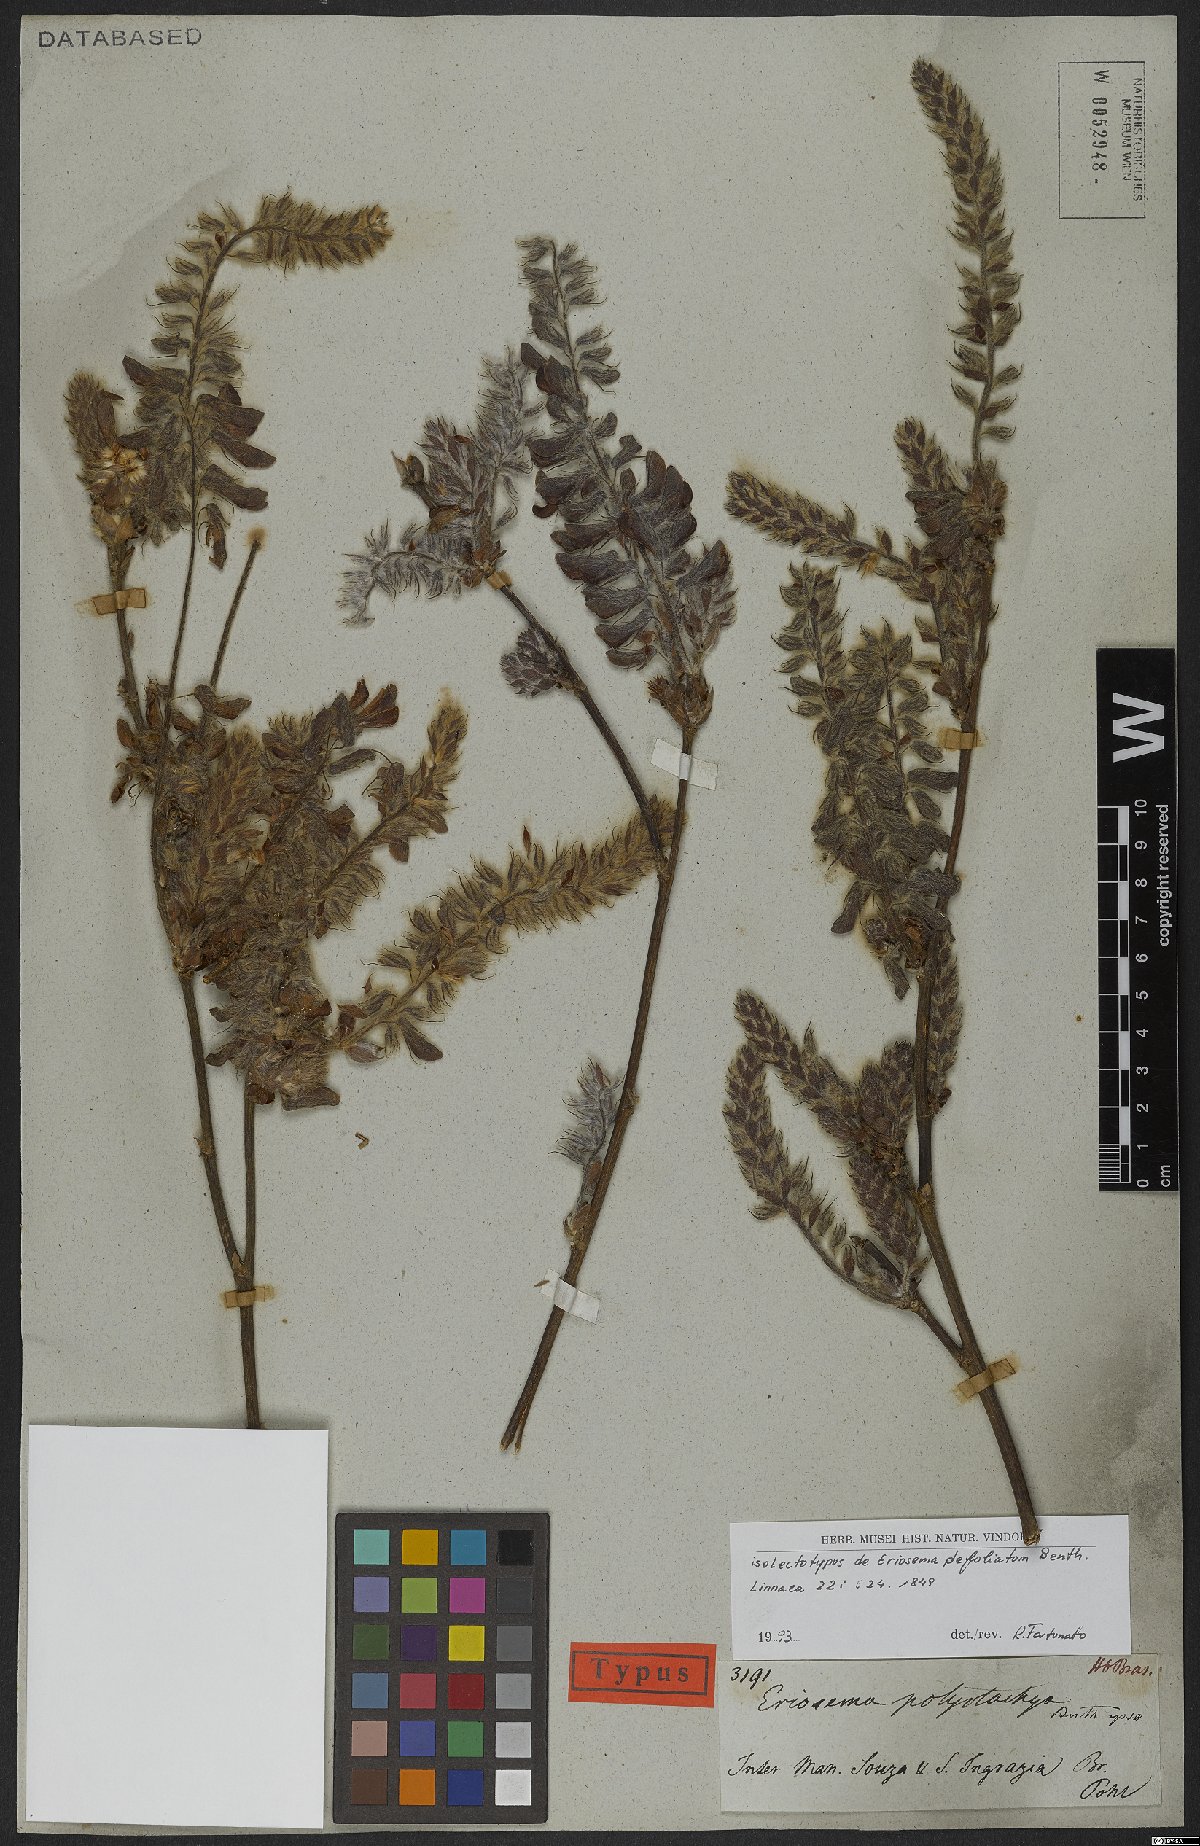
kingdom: Plantae
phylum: Tracheophyta
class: Magnoliopsida
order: Fabales
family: Fabaceae
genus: Eriosema
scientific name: Eriosema defoliatum
